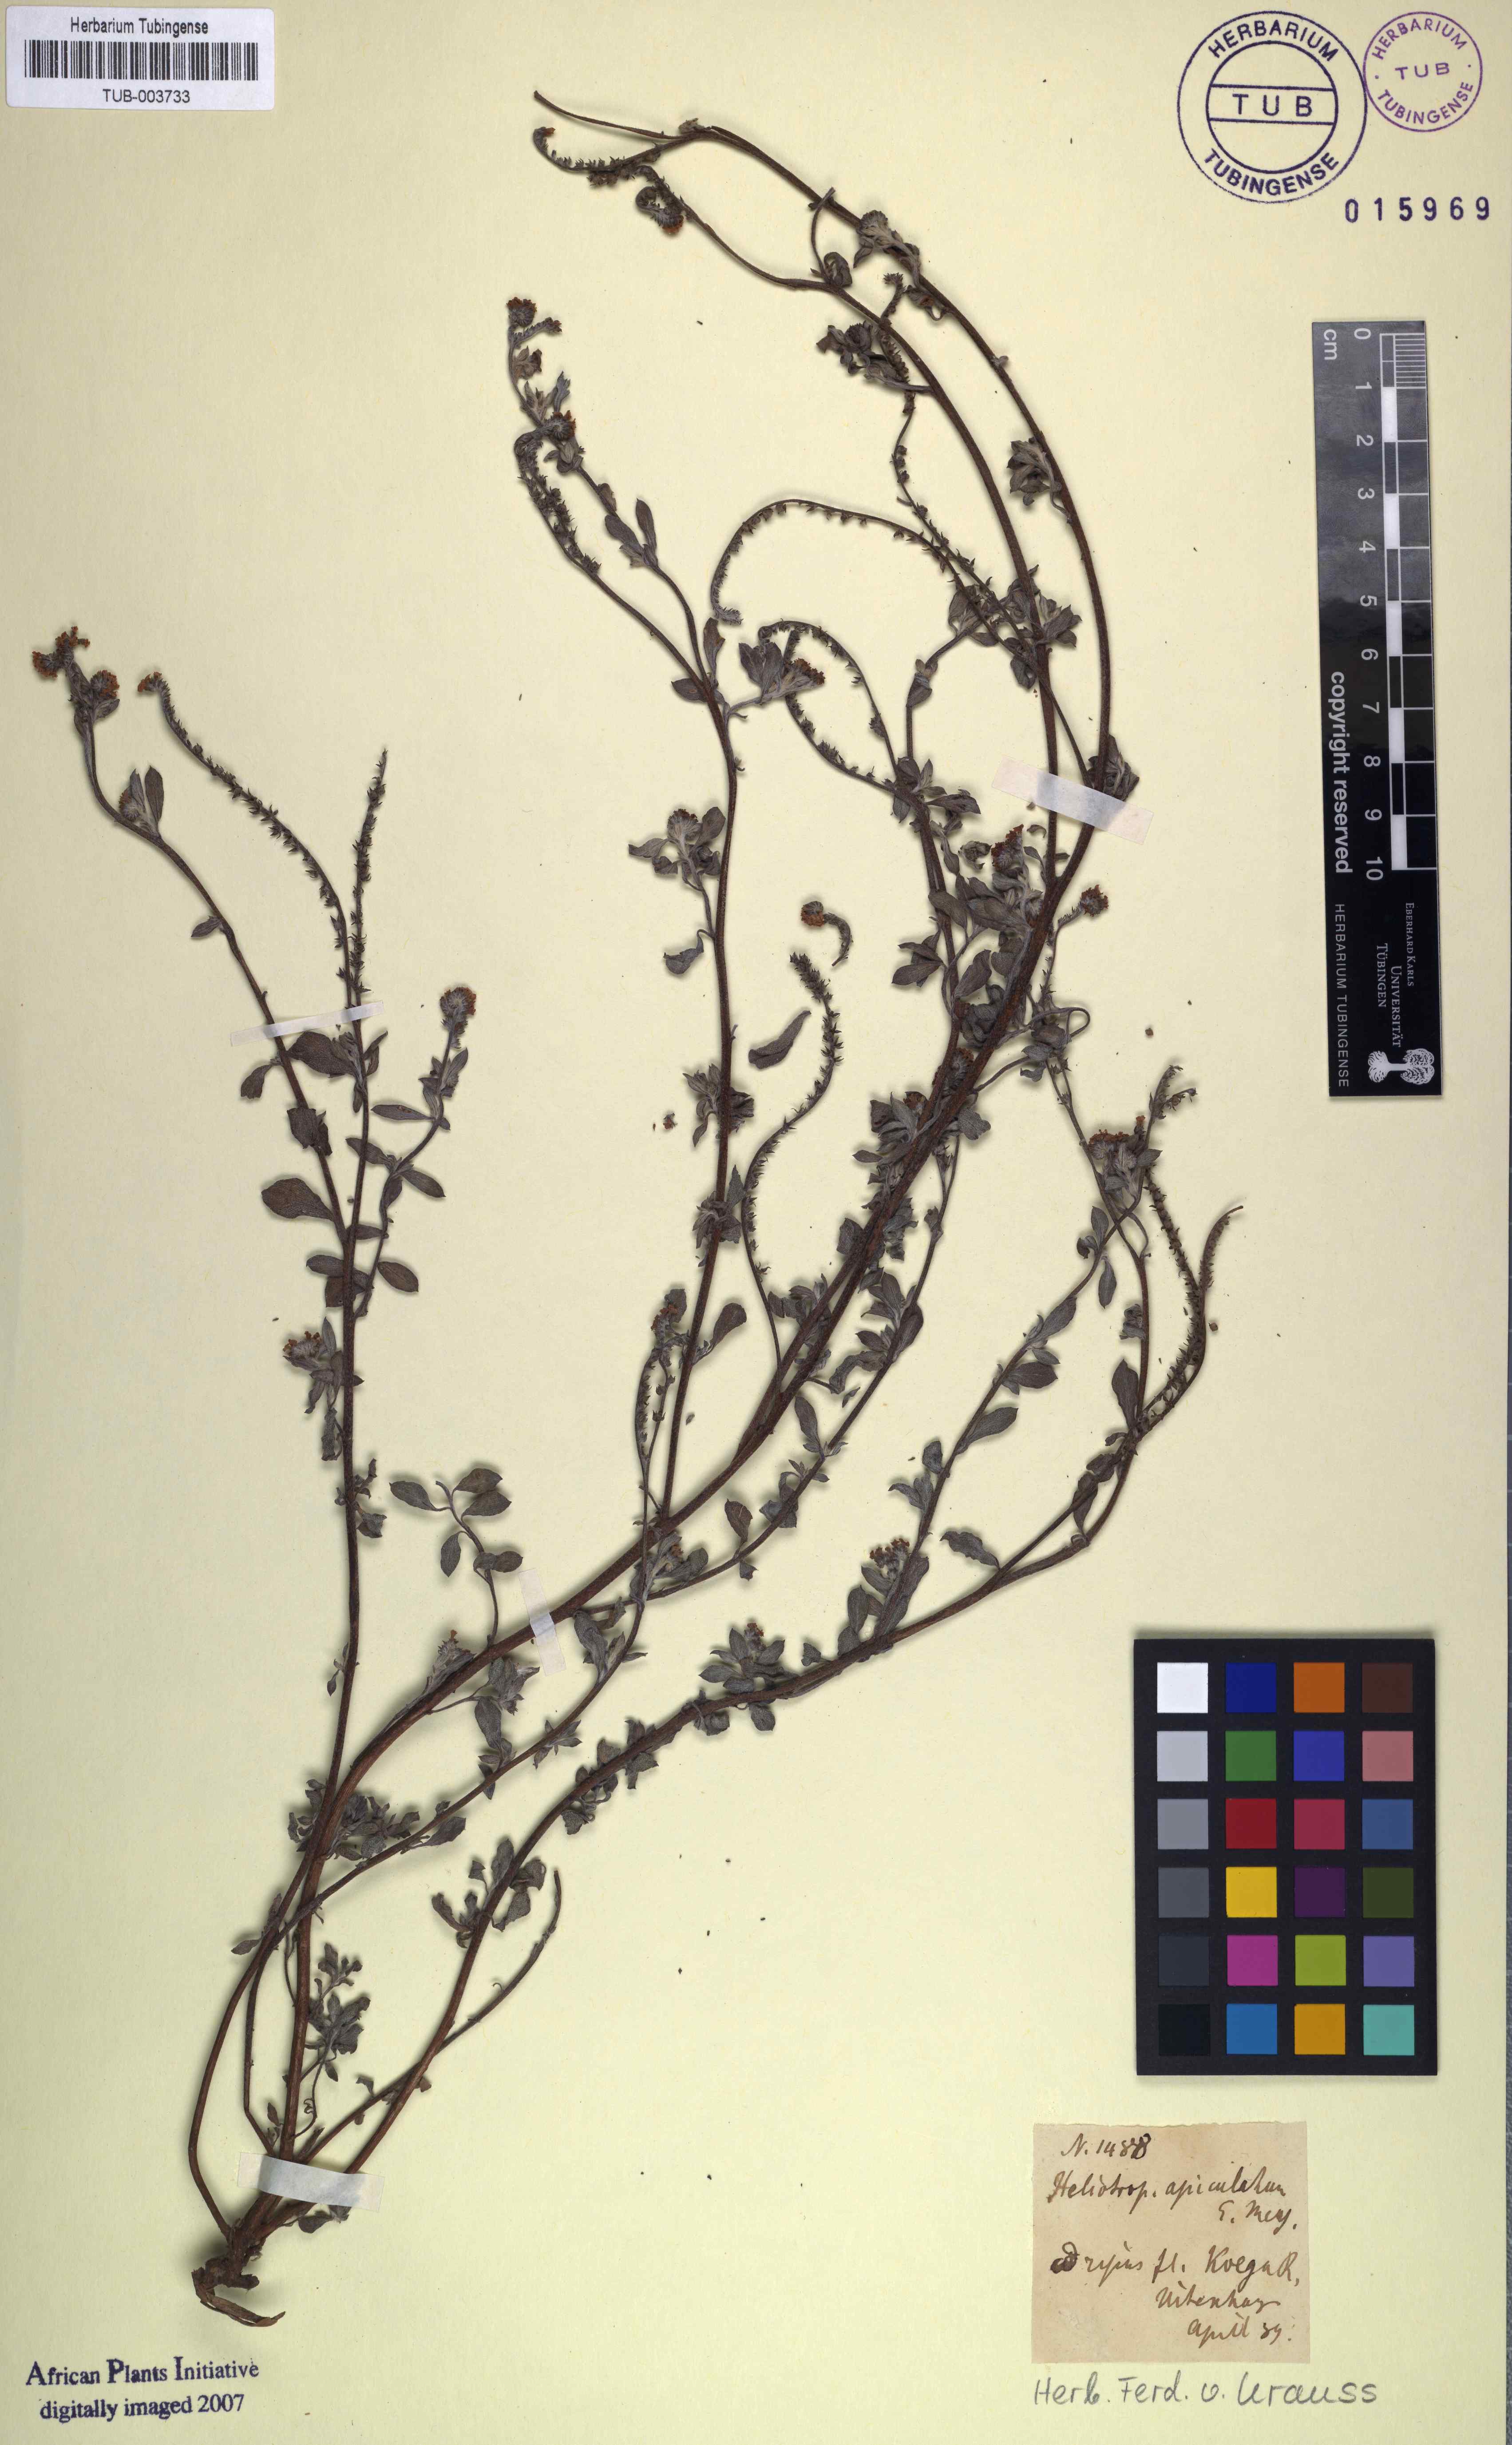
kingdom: Plantae
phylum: Tracheophyta
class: Magnoliopsida
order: Boraginales
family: Heliotropiaceae
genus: Euploca
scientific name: Euploca ovalifolia
